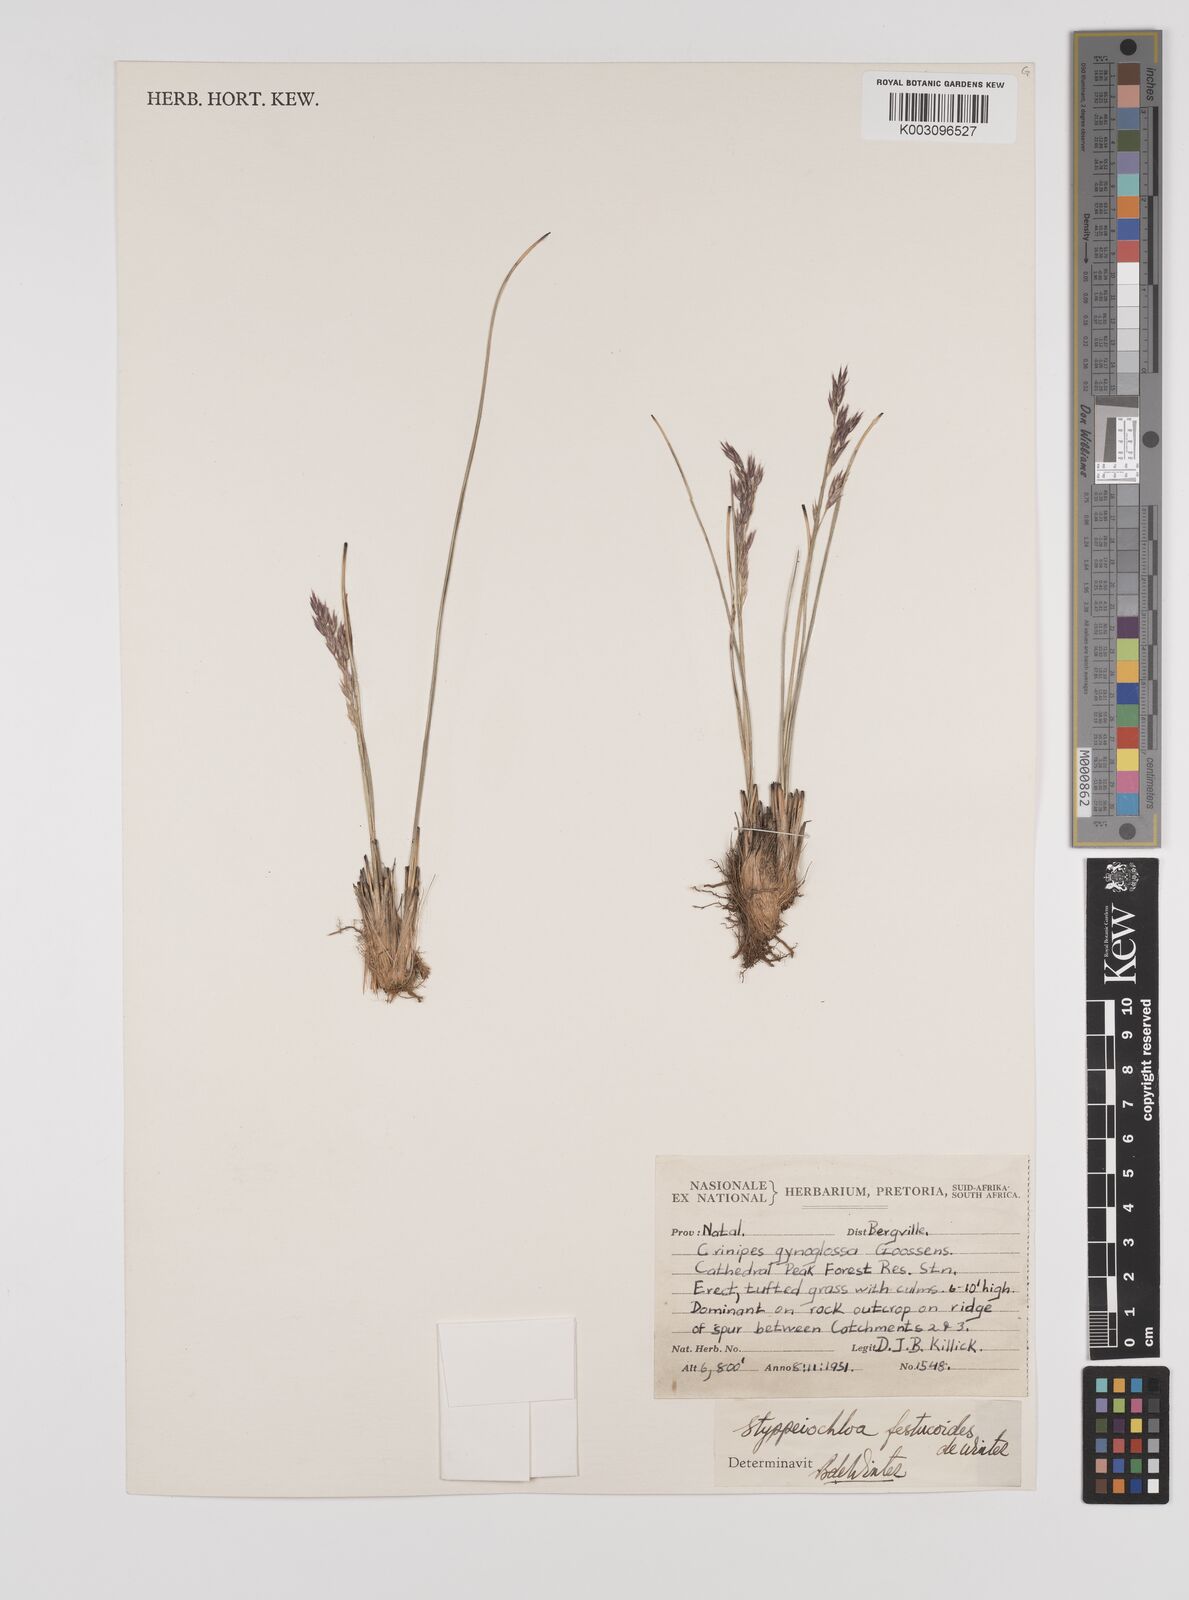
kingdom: Plantae
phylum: Tracheophyta
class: Liliopsida
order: Poales
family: Poaceae
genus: Styppeiochloa
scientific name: Styppeiochloa gynoglossa
